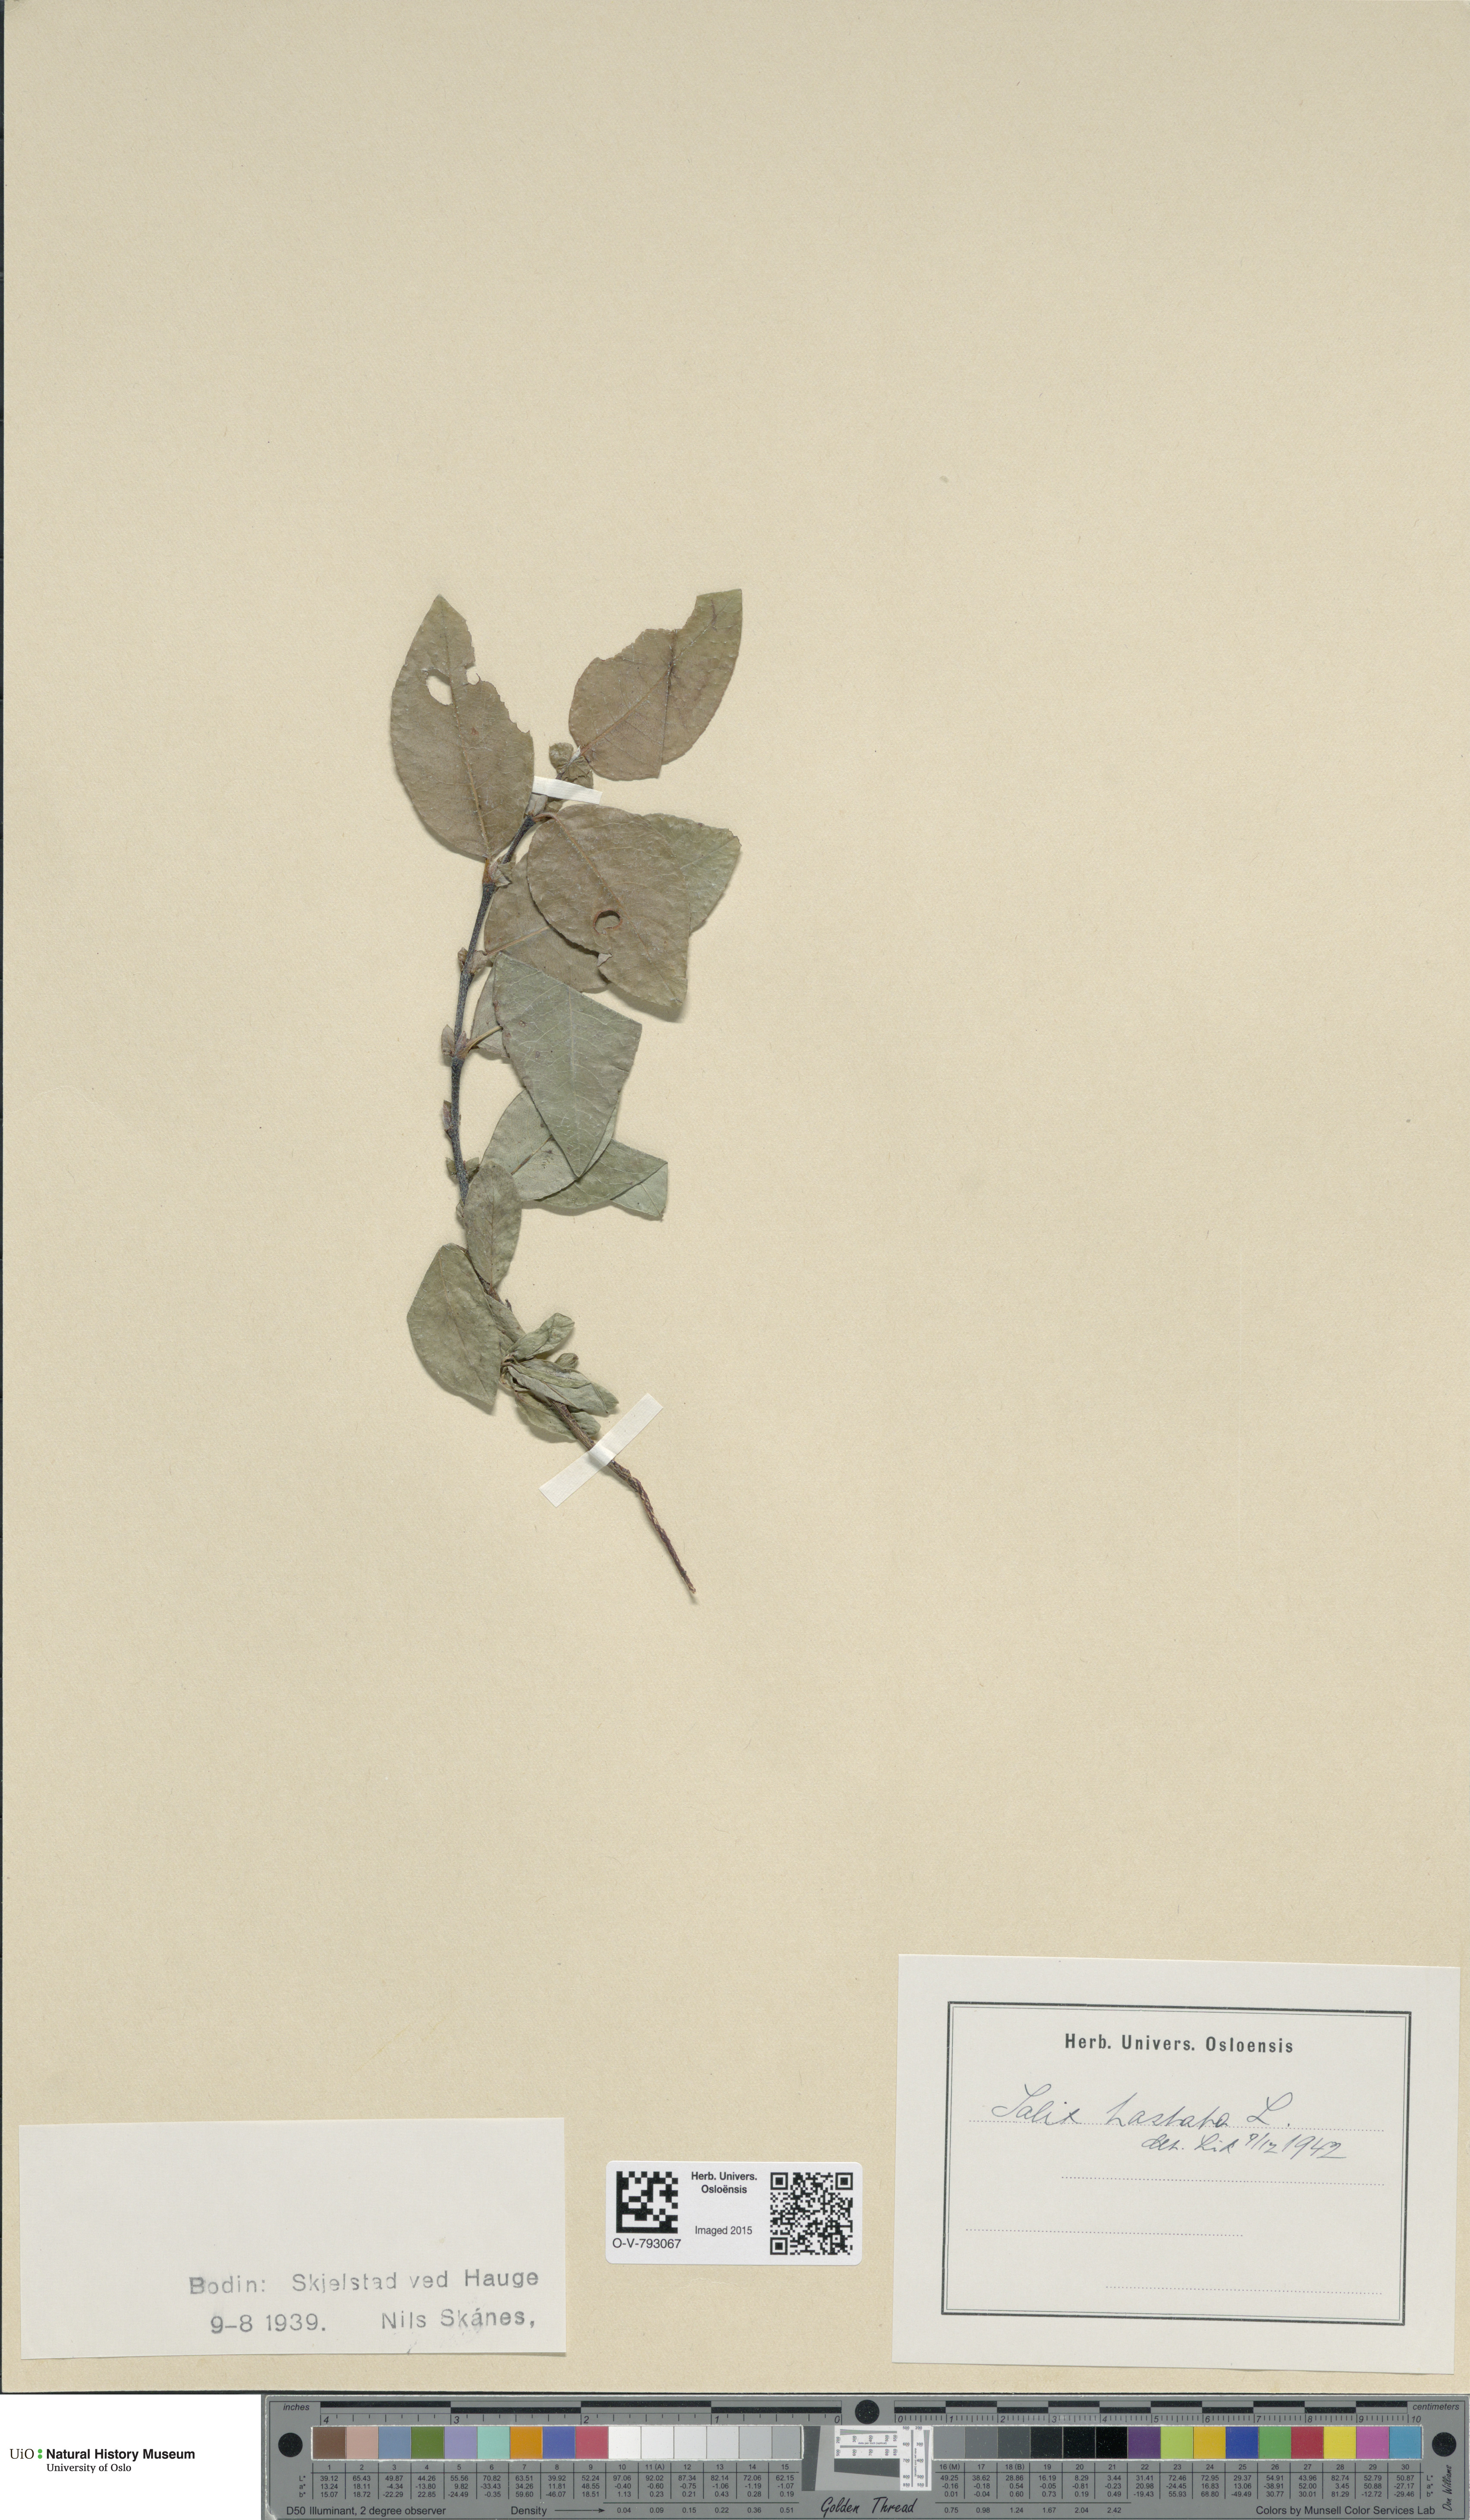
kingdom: Plantae
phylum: Tracheophyta
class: Magnoliopsida
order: Malpighiales
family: Salicaceae
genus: Salix
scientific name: Salix hastata
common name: Halberd willow
